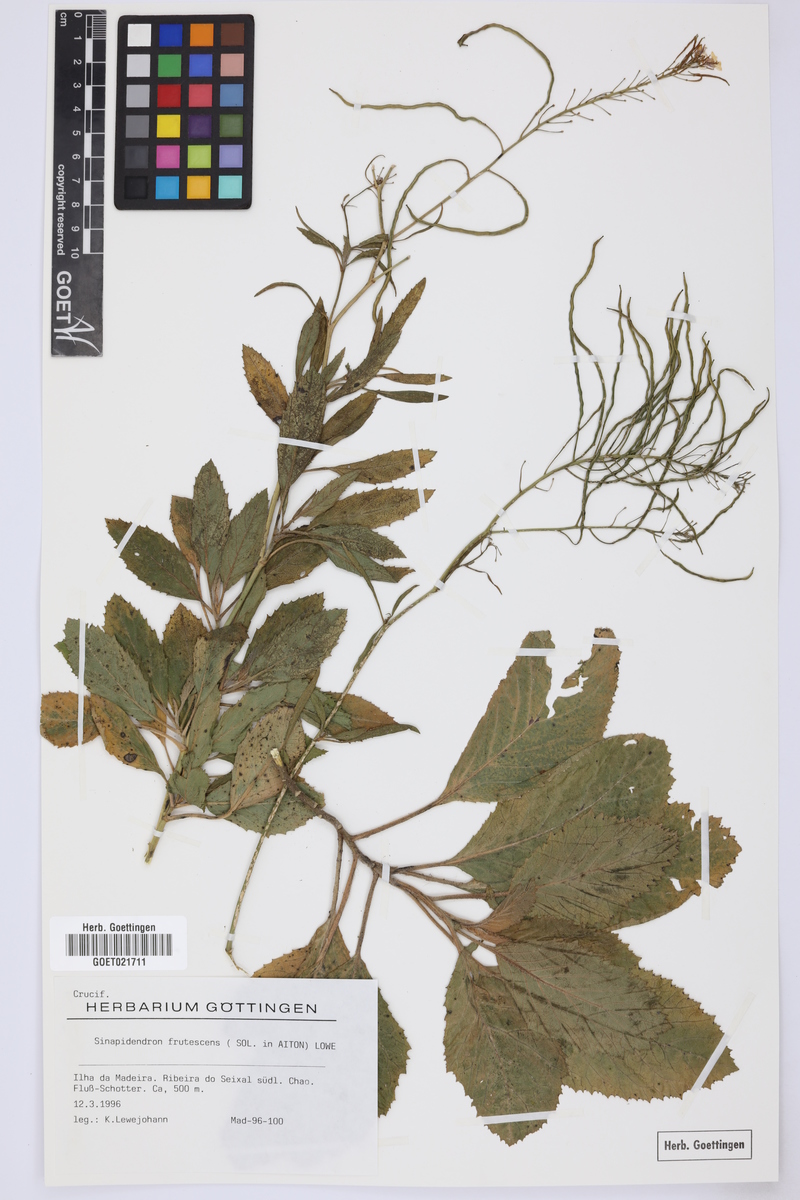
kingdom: Plantae
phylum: Tracheophyta
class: Magnoliopsida
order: Brassicales
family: Brassicaceae
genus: Sinapidendron
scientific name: Sinapidendron frutescens
